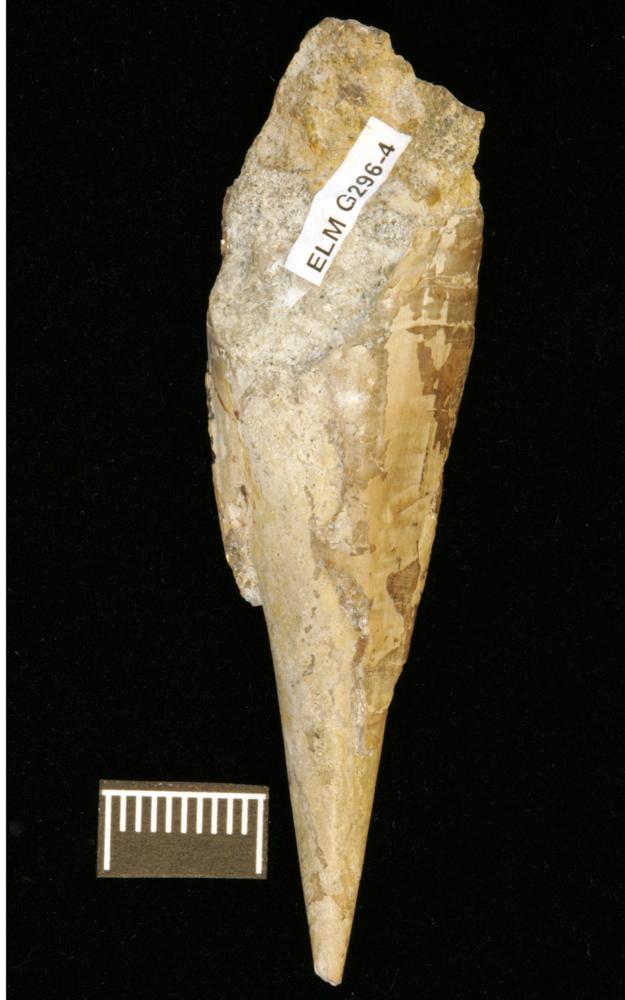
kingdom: Animalia
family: Sulcavitidae
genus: Dorsolinevitus
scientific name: Dorsolinevitus
